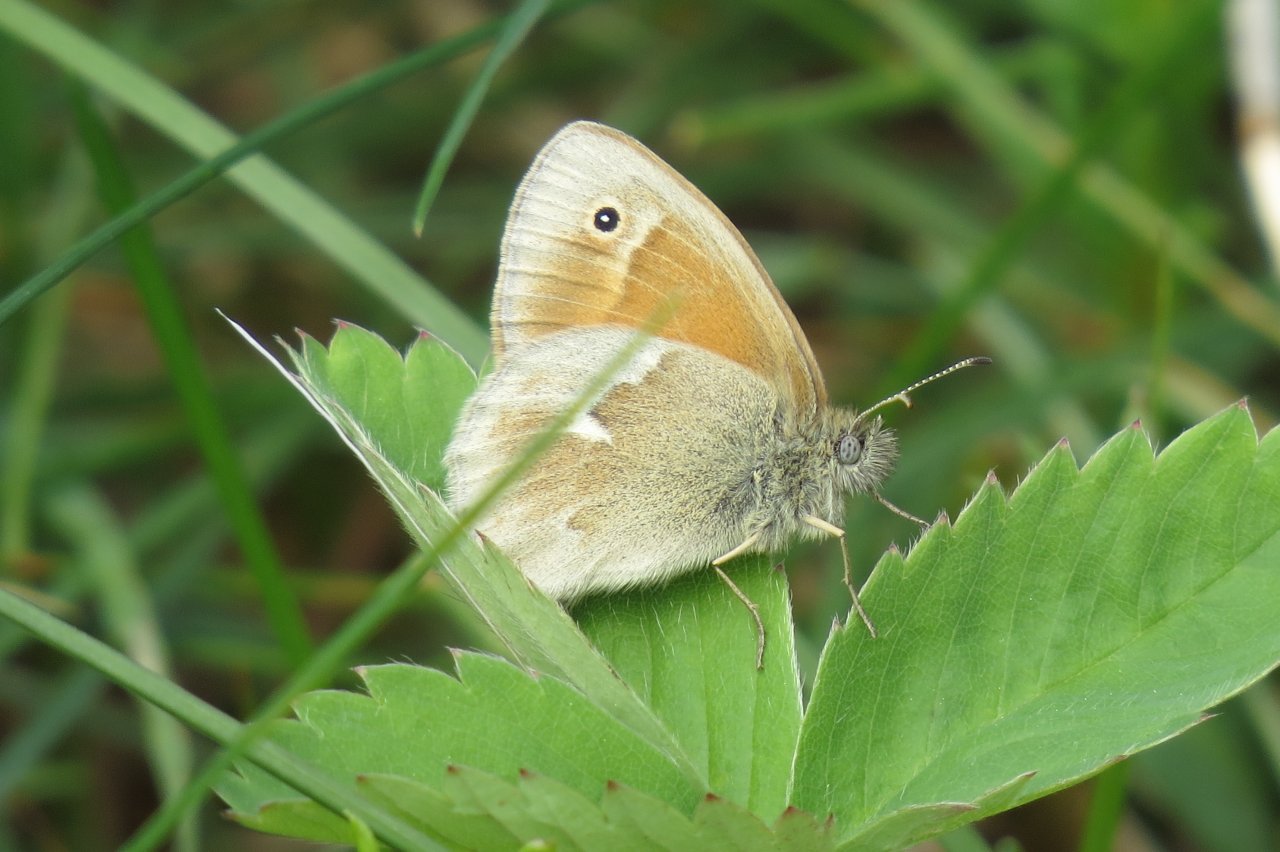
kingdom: Animalia
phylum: Arthropoda
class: Insecta
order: Lepidoptera
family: Nymphalidae
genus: Coenonympha
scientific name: Coenonympha tullia
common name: Large Heath
